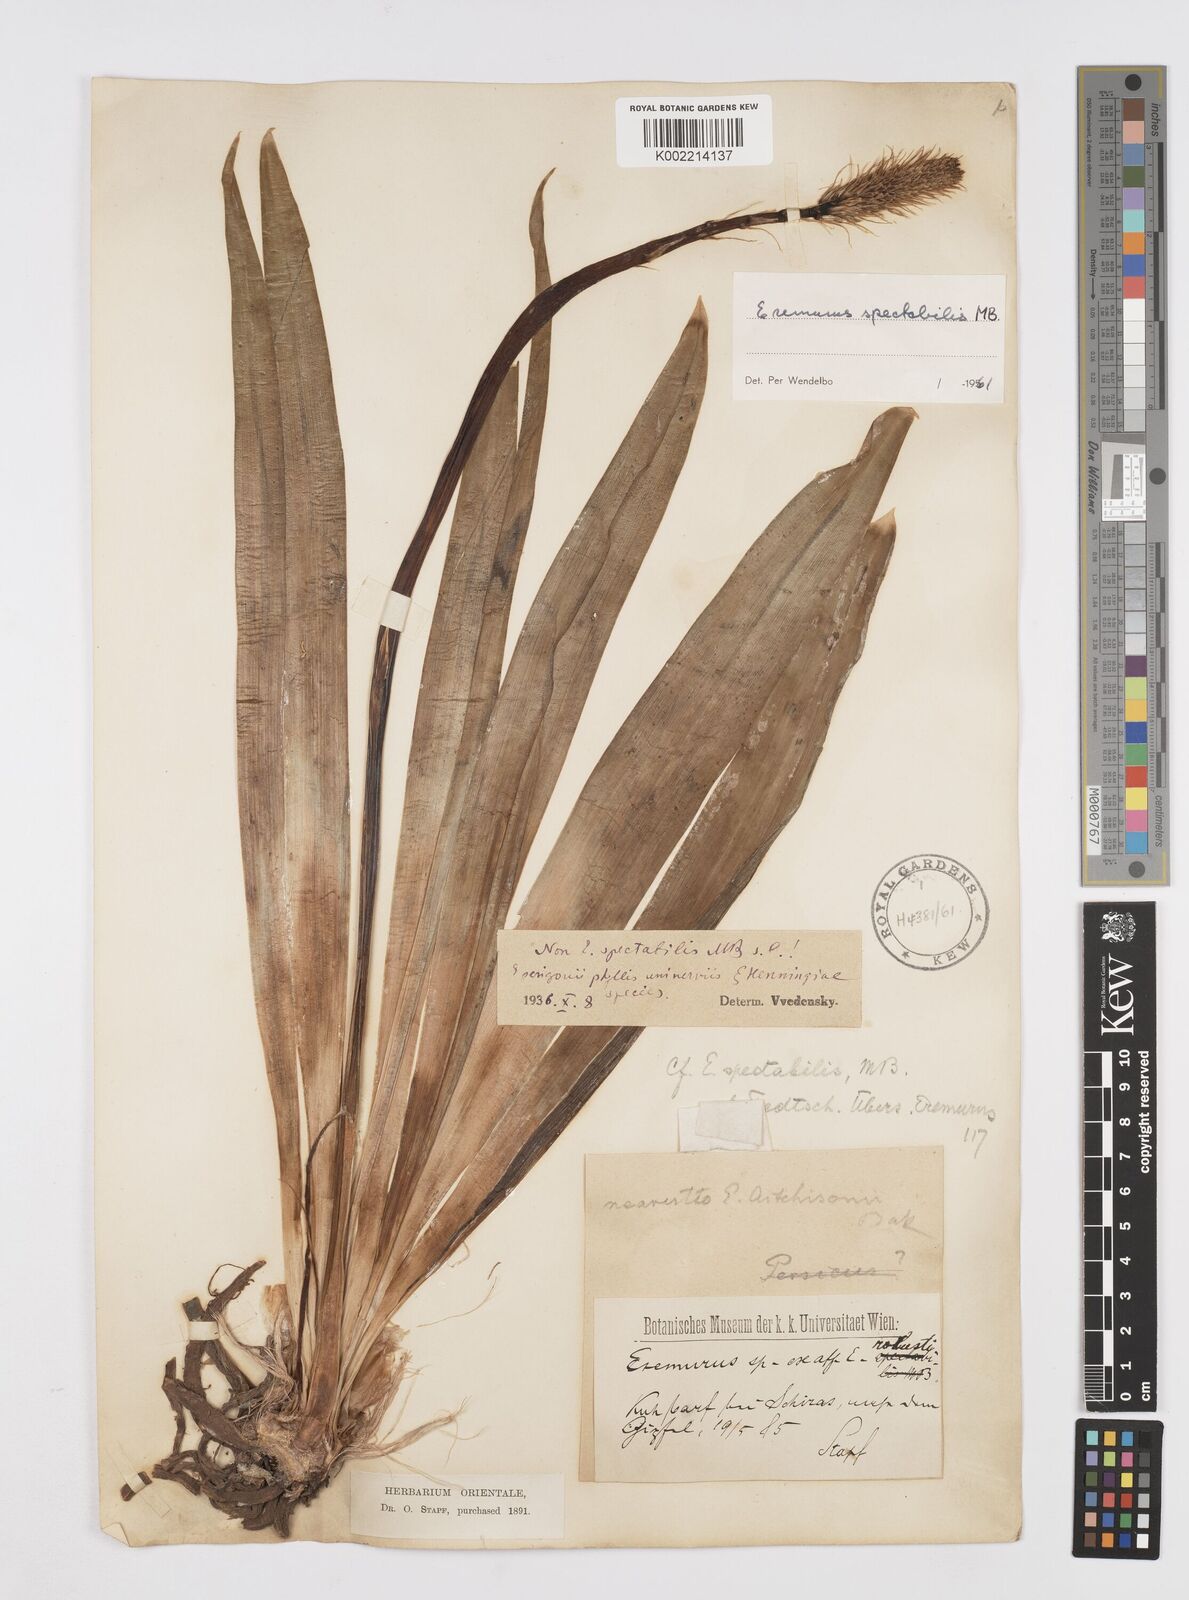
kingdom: Plantae
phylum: Tracheophyta
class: Liliopsida
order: Asparagales
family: Asphodelaceae
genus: Eremurus
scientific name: Eremurus spectabilis
